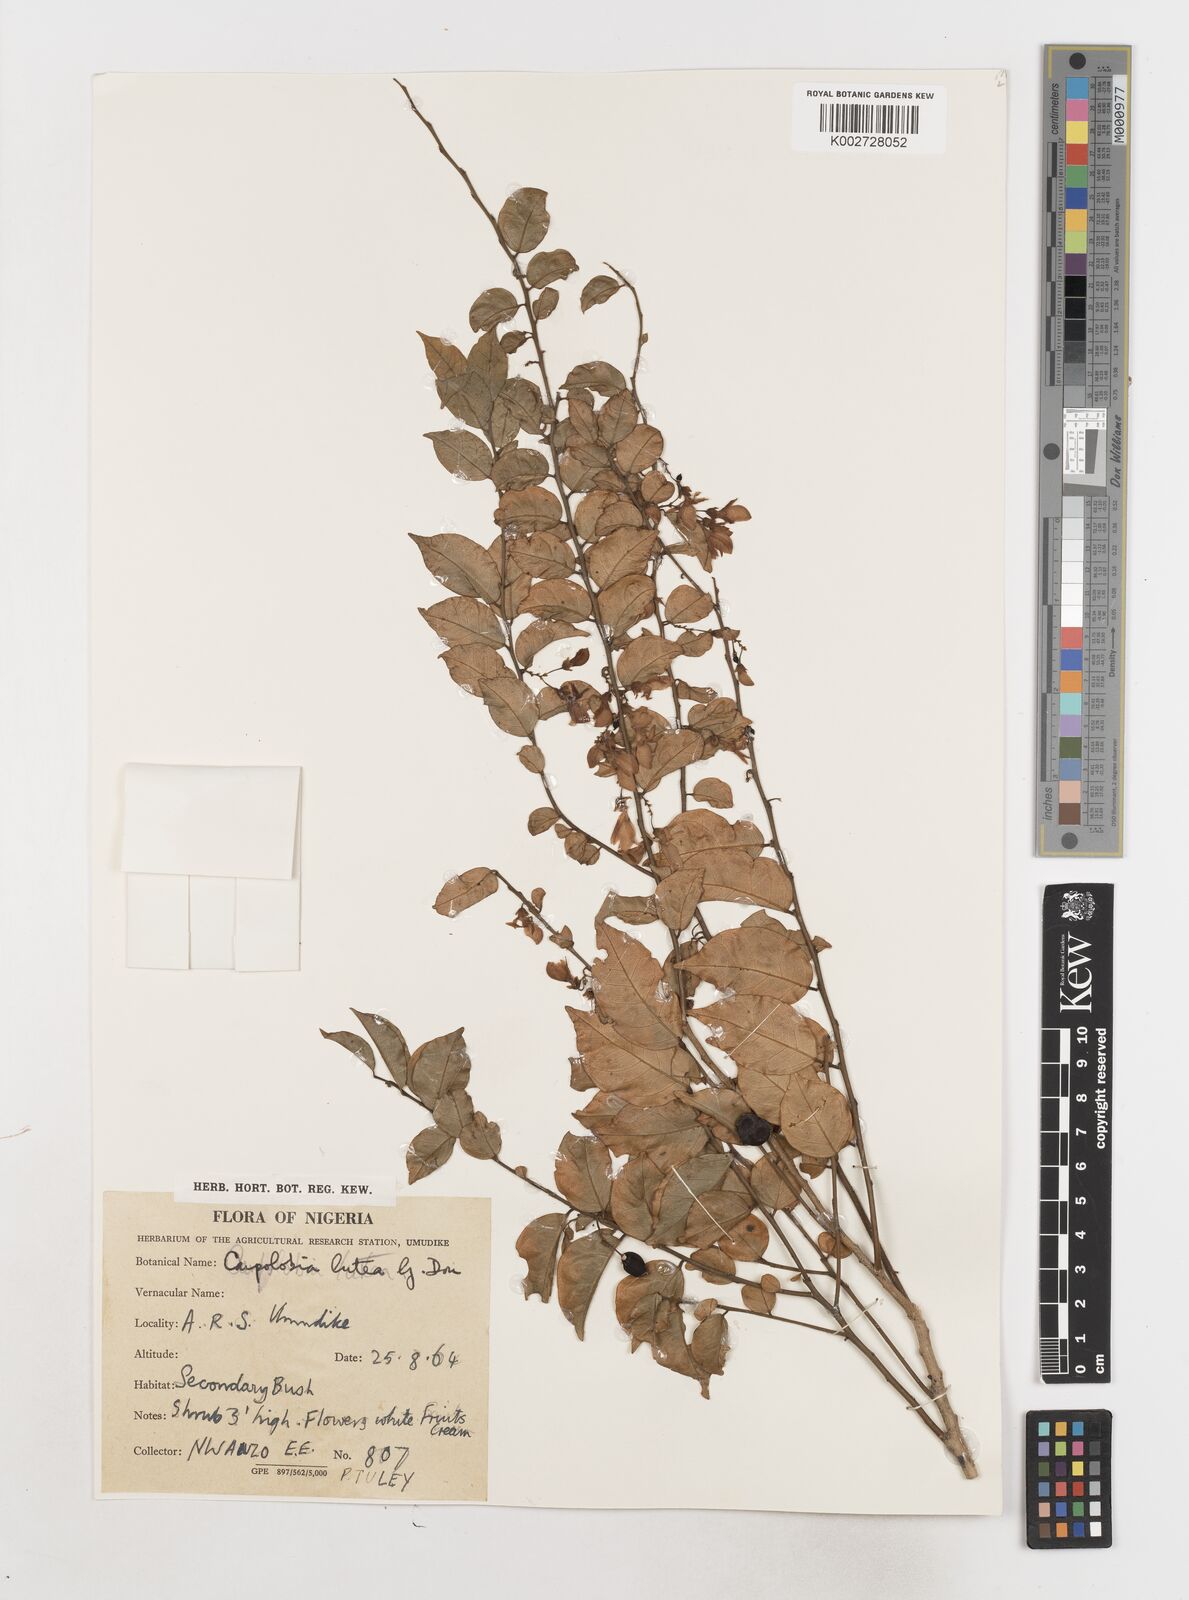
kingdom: Plantae
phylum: Tracheophyta
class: Magnoliopsida
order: Fabales
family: Polygalaceae
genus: Carpolobia
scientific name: Carpolobia lutea
